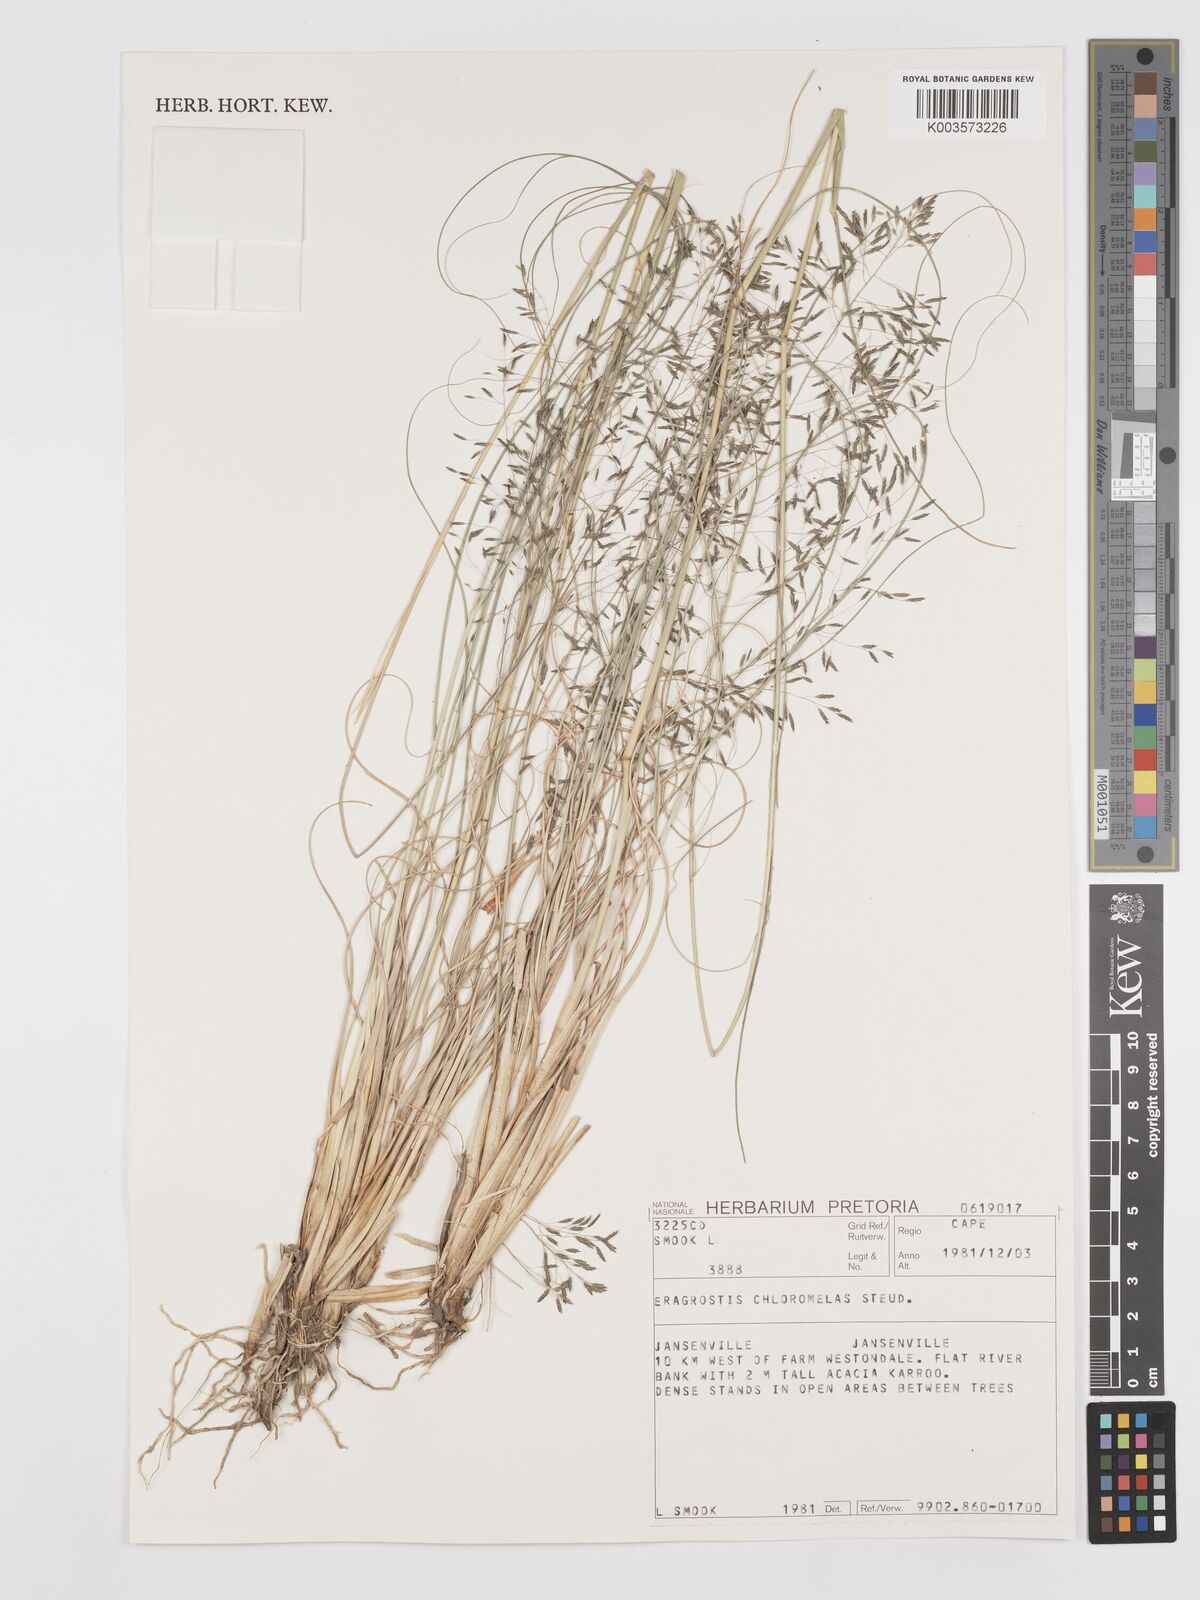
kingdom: Plantae
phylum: Tracheophyta
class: Liliopsida
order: Poales
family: Poaceae
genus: Eragrostis
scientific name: Eragrostis curvula
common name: African love-grass
